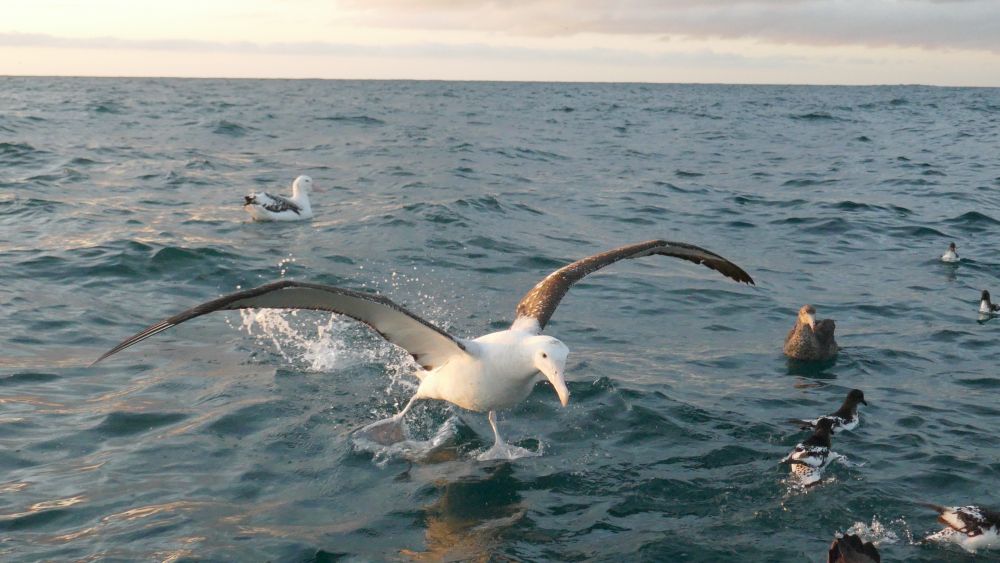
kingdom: Animalia
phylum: Chordata
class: Aves
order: Procellariiformes
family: Procellariidae
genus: Daption
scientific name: Daption capense
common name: Cape petrel
